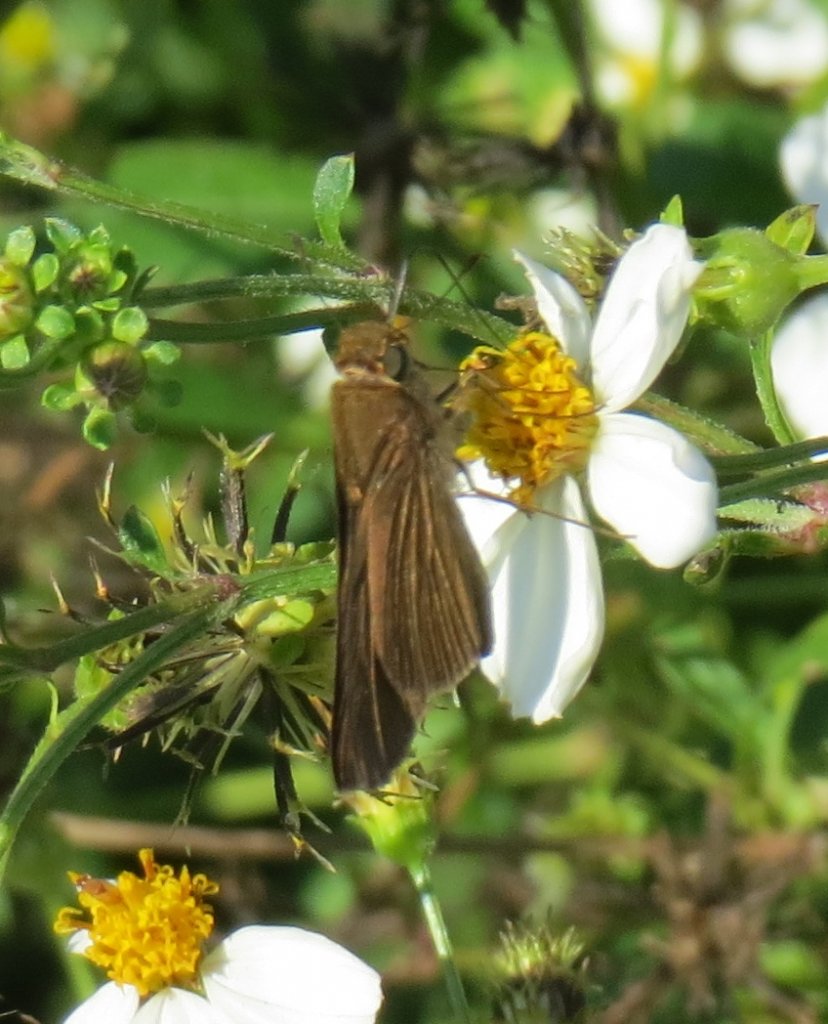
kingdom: Animalia
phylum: Arthropoda
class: Insecta
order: Lepidoptera
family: Hesperiidae
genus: Panoquina
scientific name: Panoquina ocola
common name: Ocola Skipper
